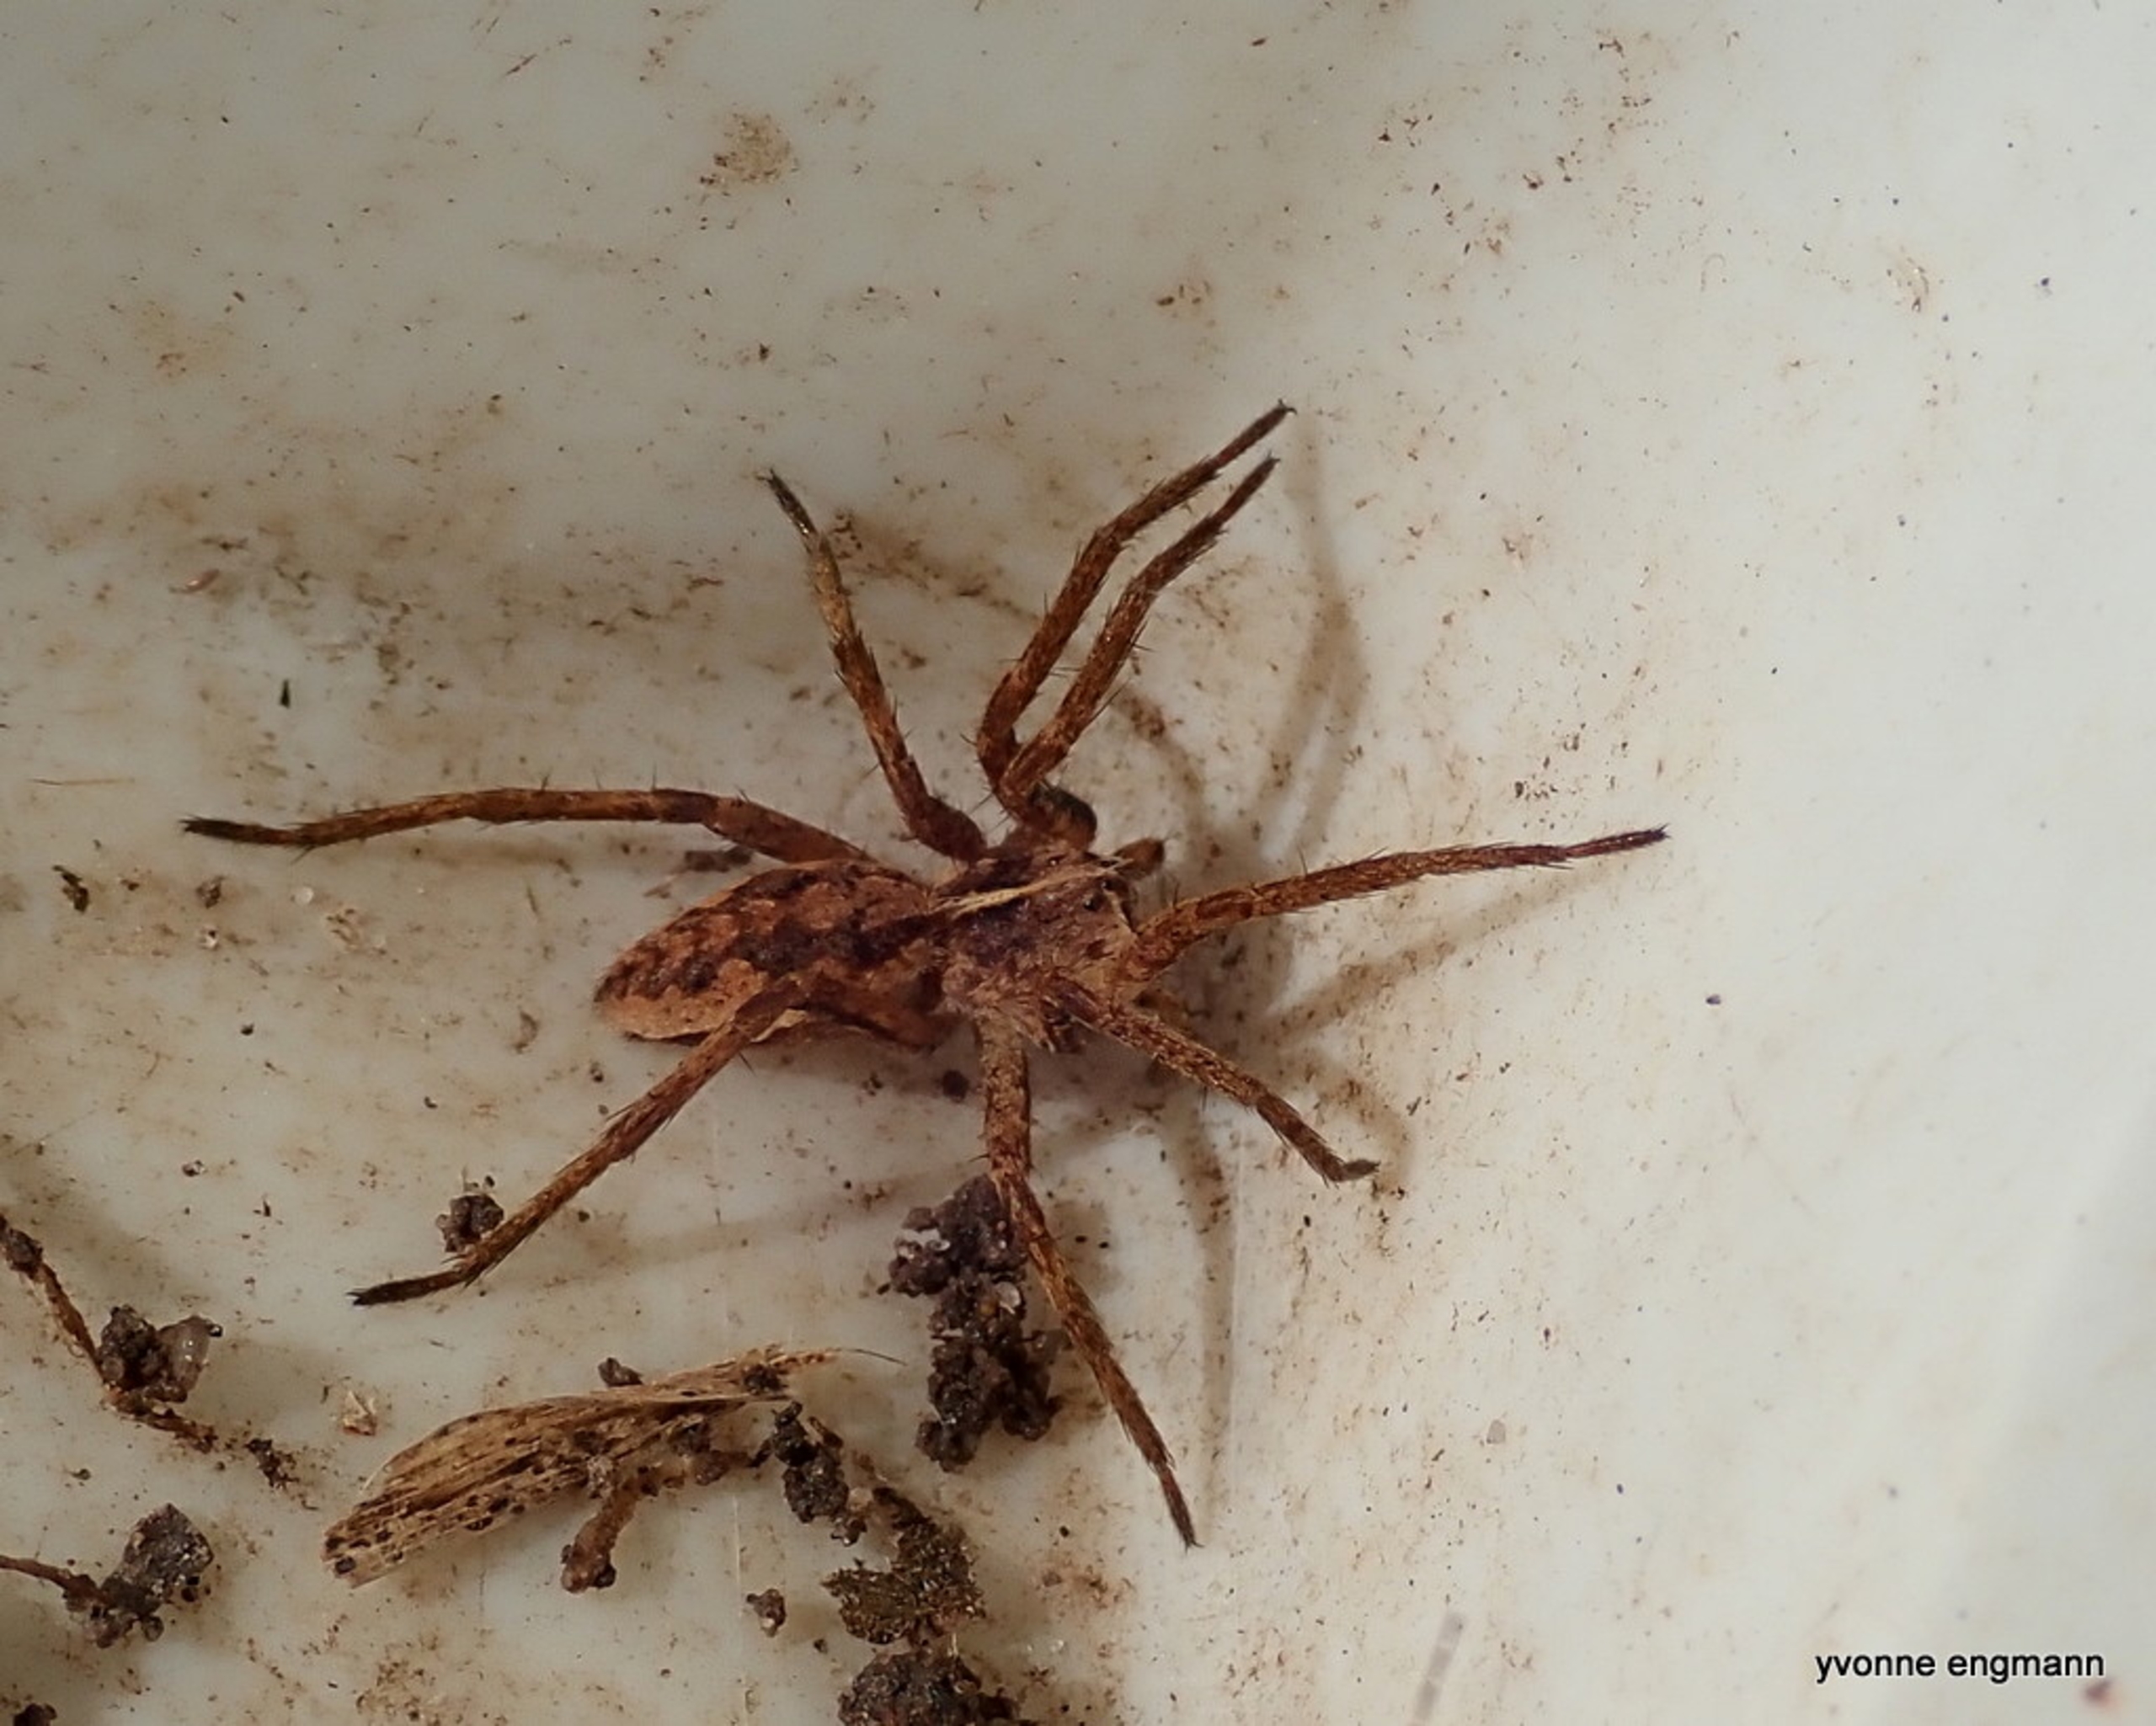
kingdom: Animalia
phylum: Arthropoda
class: Arachnida
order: Araneae
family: Pisauridae
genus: Pisaura
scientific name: Pisaura mirabilis
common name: Almindelig rovedderkop
